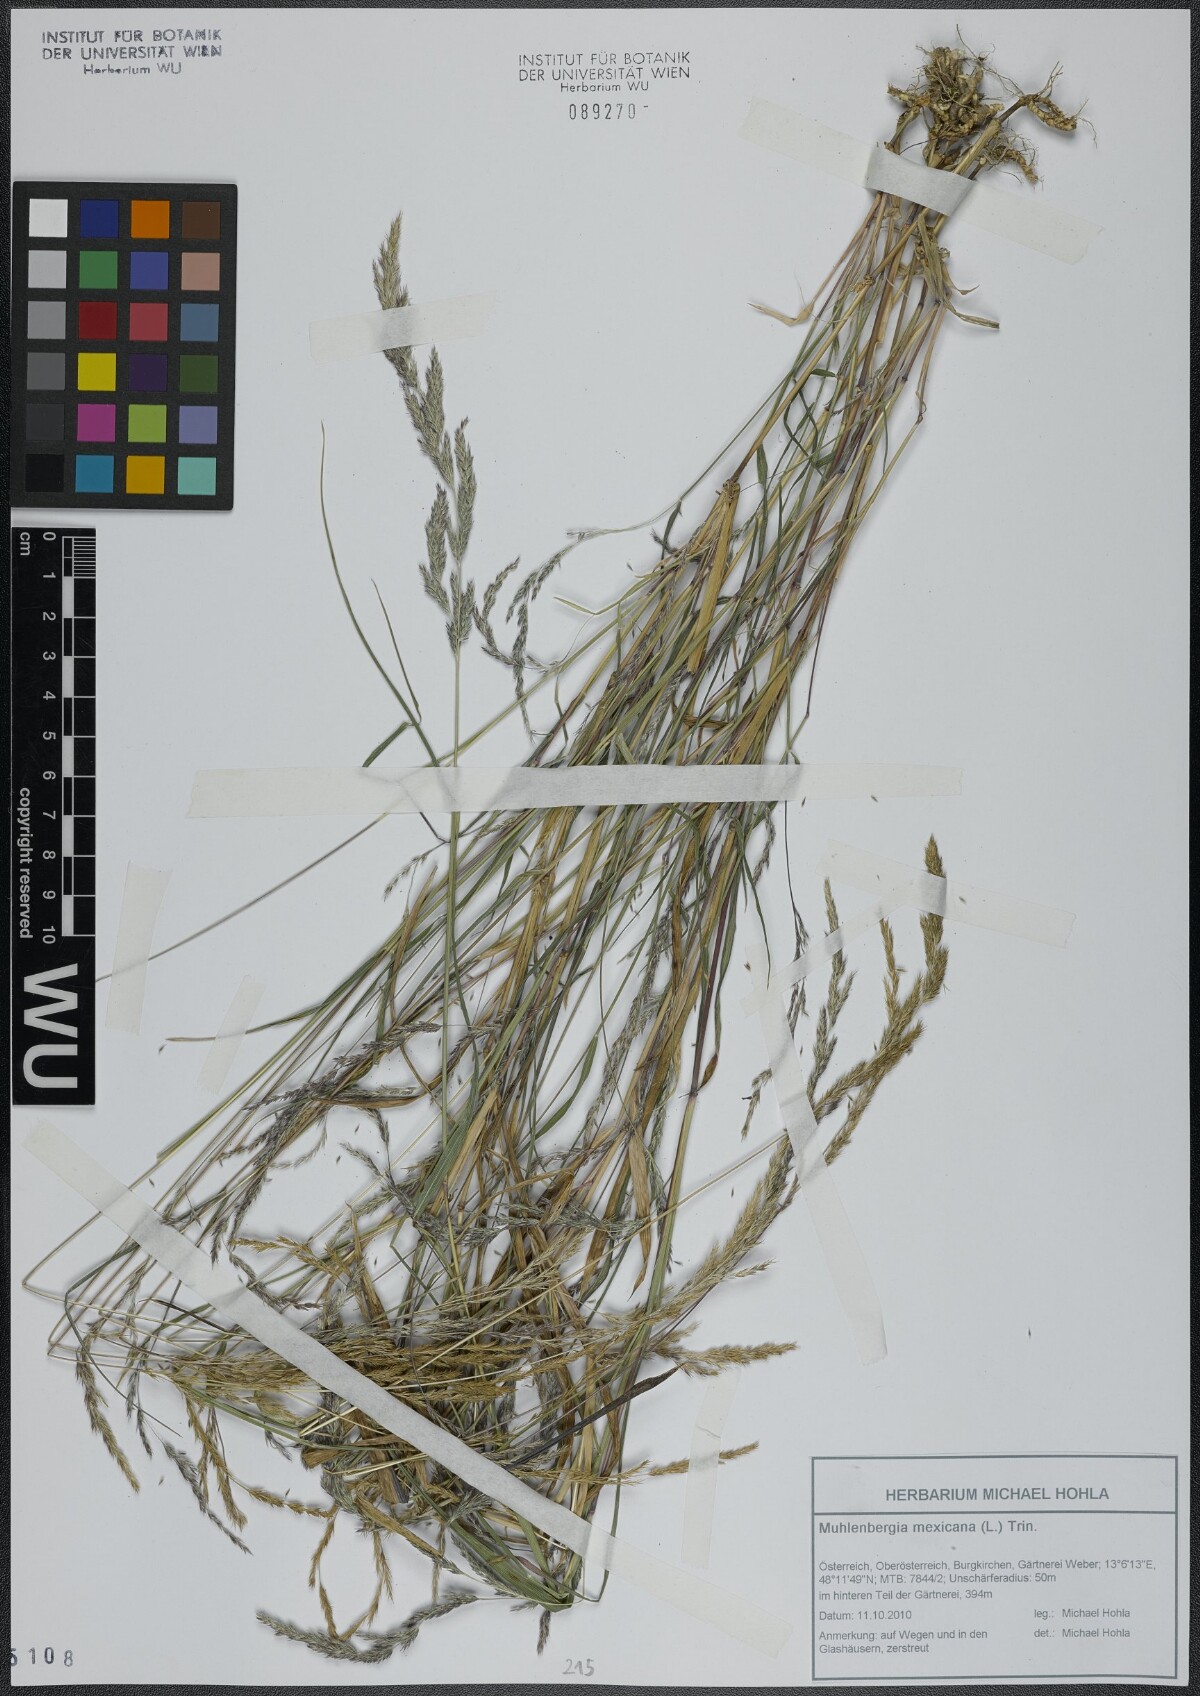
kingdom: Plantae
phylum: Tracheophyta
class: Liliopsida
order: Poales
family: Poaceae
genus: Muhlenbergia
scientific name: Muhlenbergia mexicana
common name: Mexican muhly
